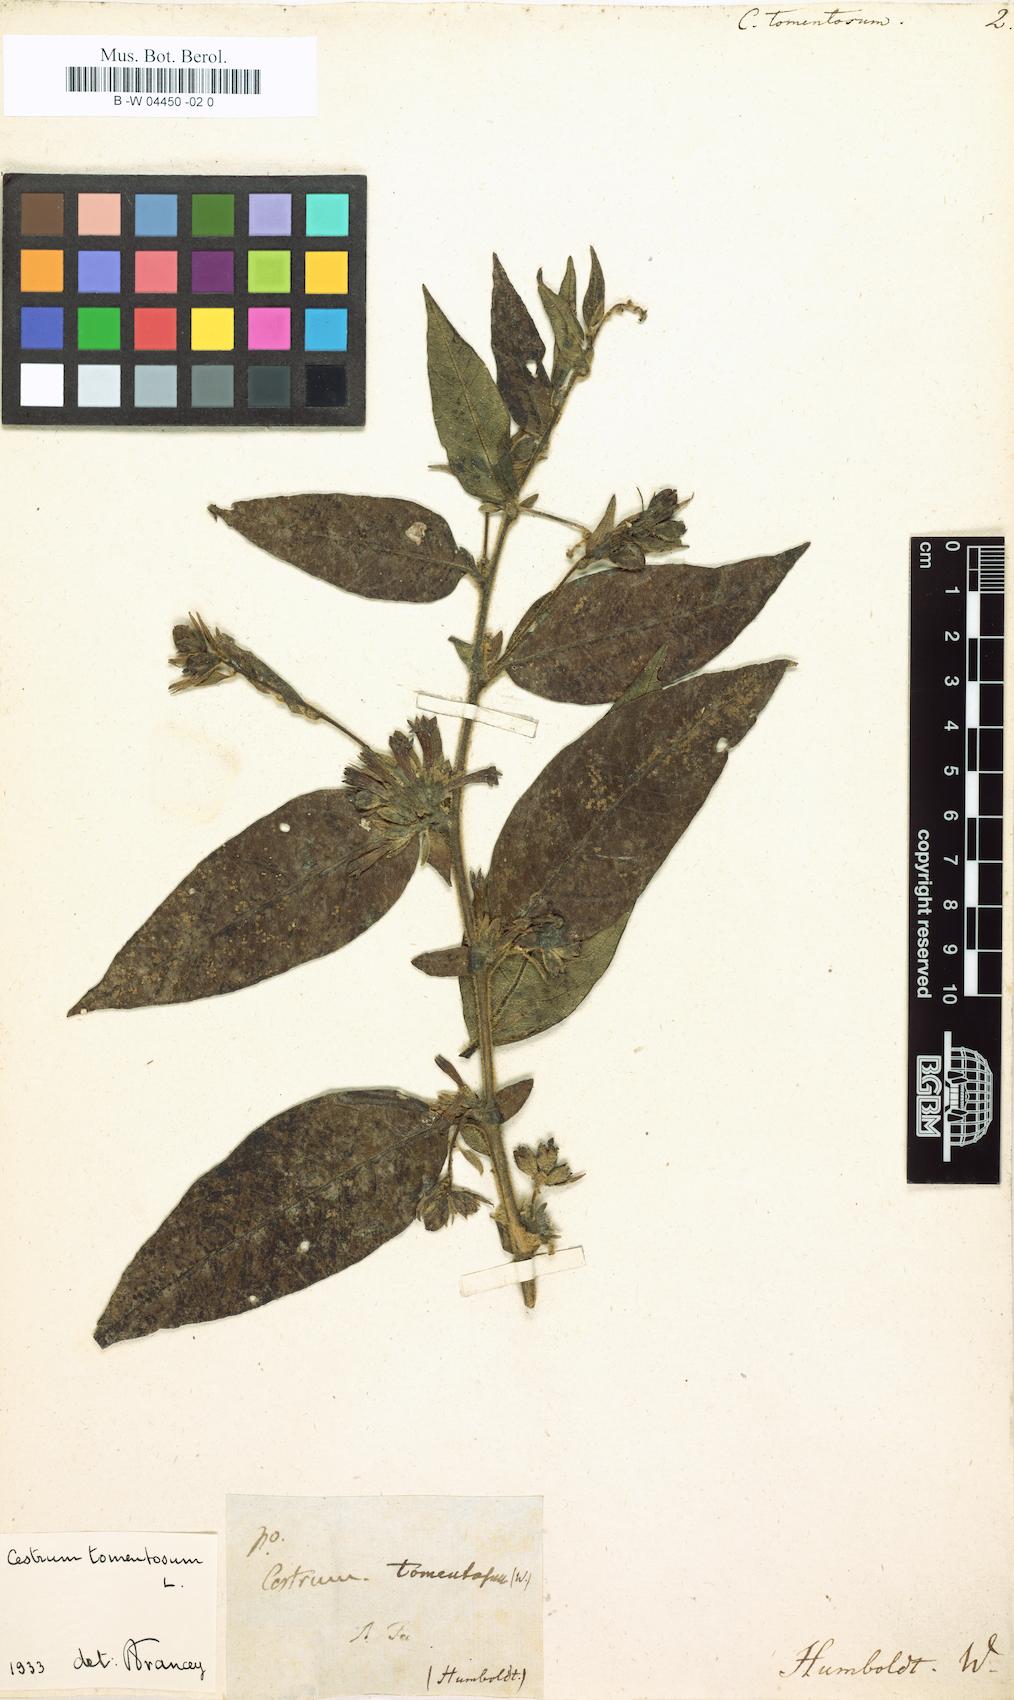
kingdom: Plantae
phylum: Tracheophyta
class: Magnoliopsida
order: Solanales
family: Solanaceae
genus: Cestrum
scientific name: Cestrum tomentosum
